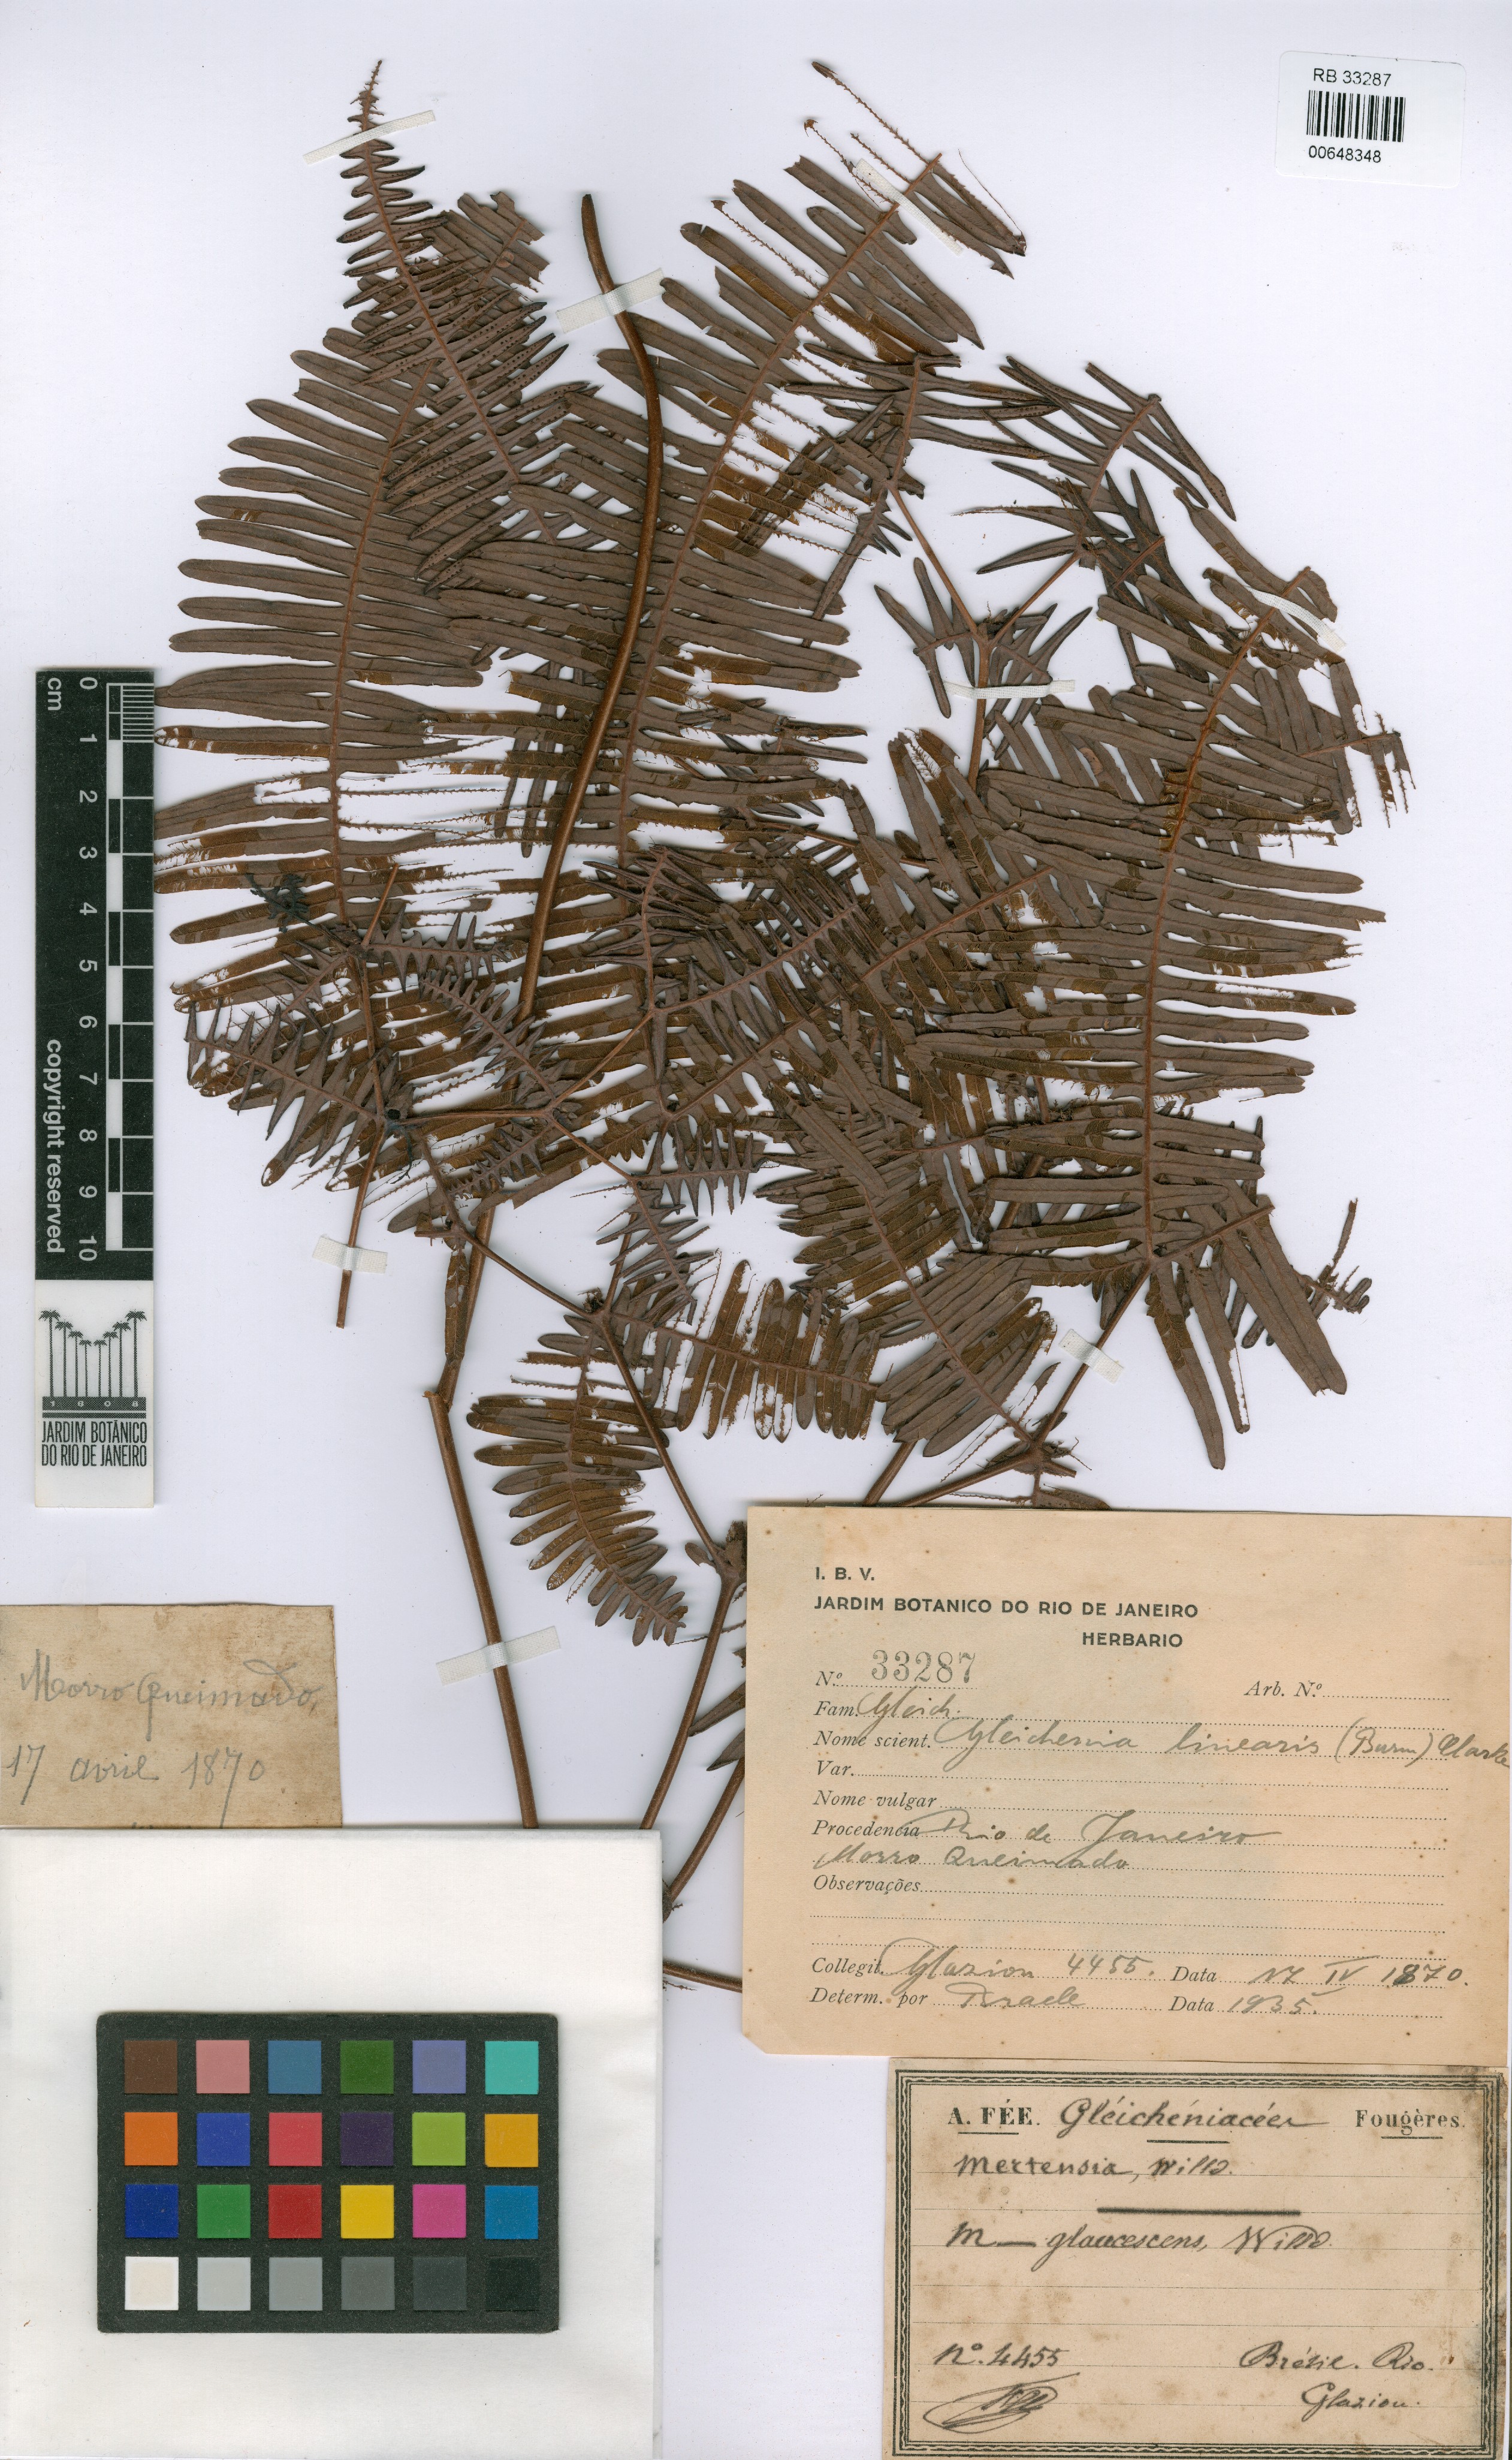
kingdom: Plantae
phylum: Tracheophyta
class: Polypodiopsida
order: Gleicheniales
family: Gleicheniaceae
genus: Dicranopteris
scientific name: Dicranopteris flexuosa
